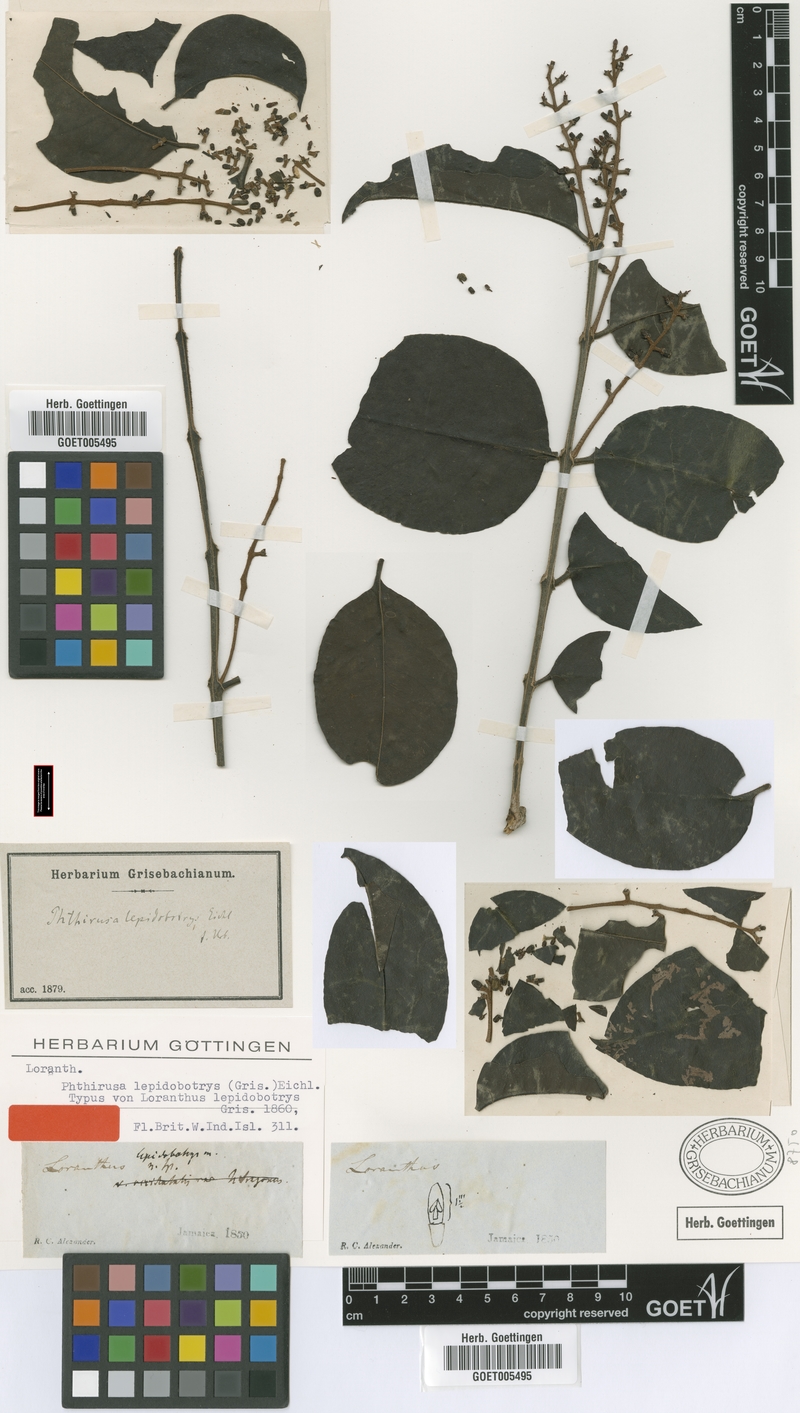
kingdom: Plantae
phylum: Tracheophyta
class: Magnoliopsida
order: Santalales
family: Loranthaceae
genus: Passovia
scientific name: Passovia
